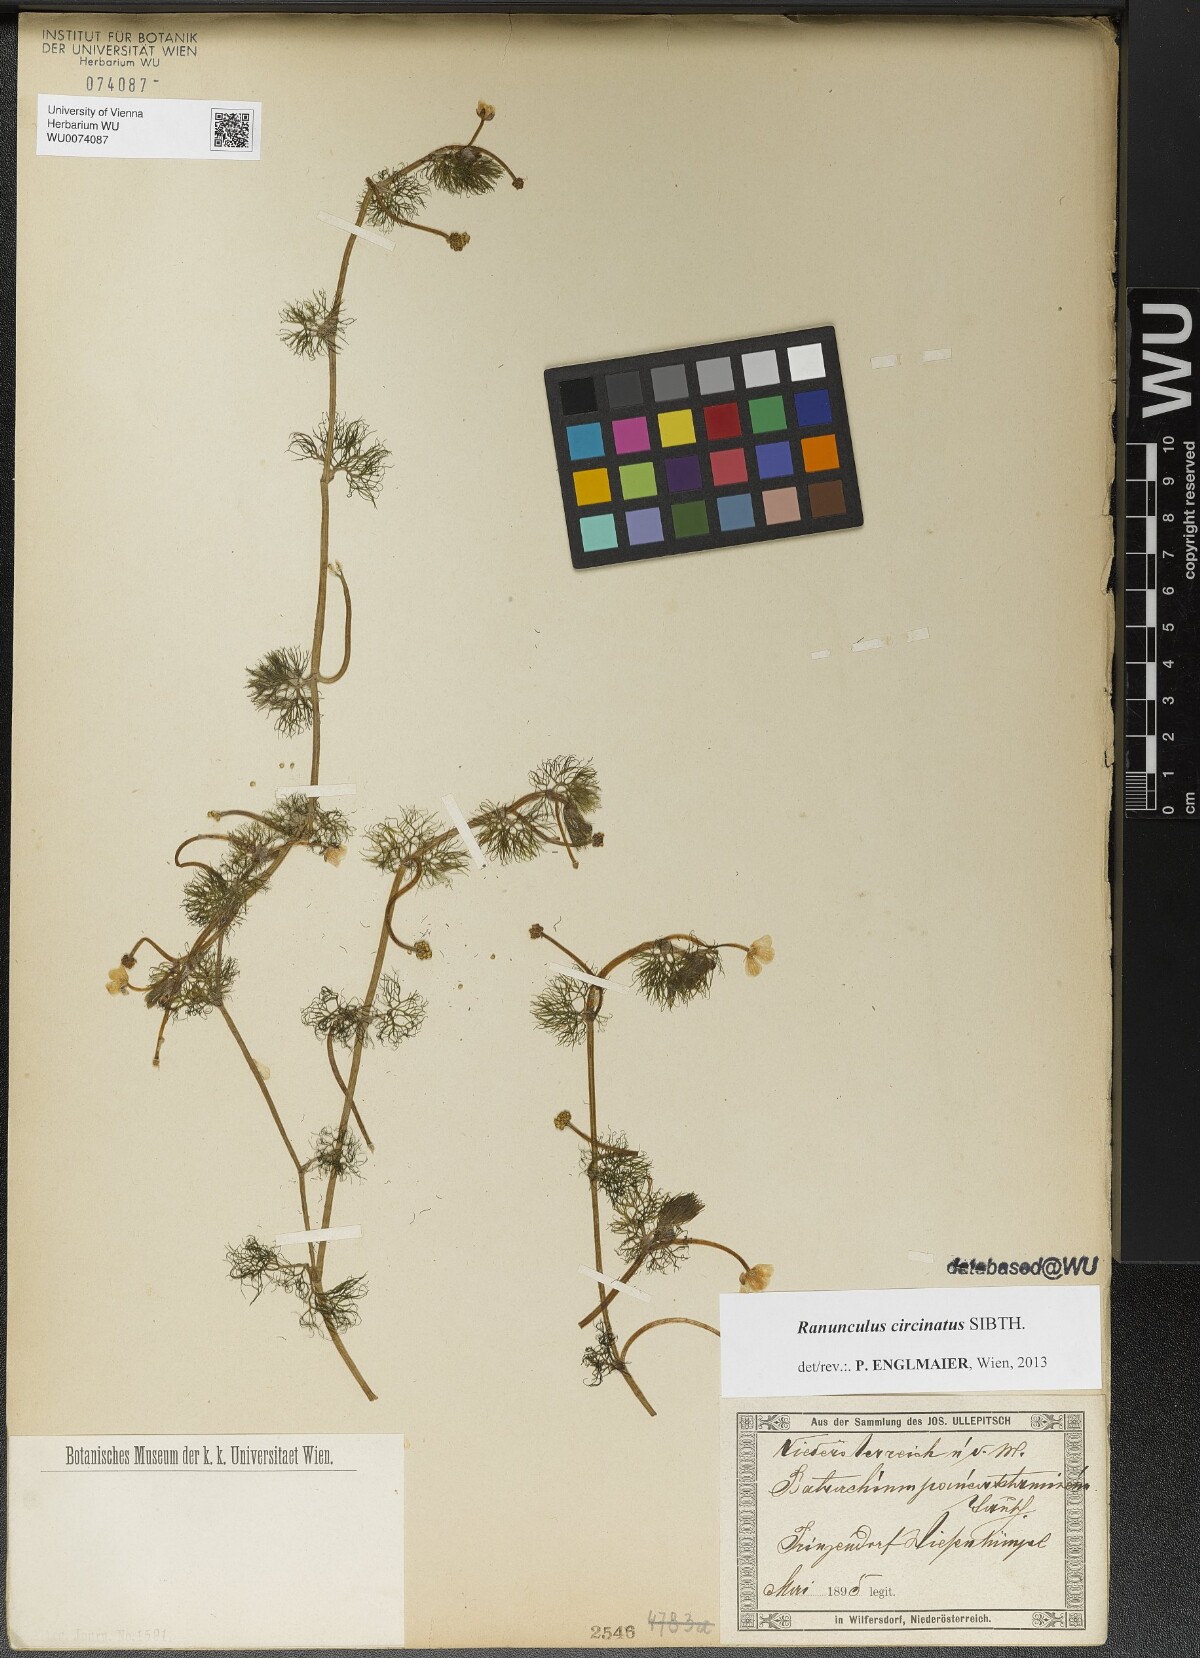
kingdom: Plantae
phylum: Tracheophyta
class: Magnoliopsida
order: Ranunculales
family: Ranunculaceae
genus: Ranunculus
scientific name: Ranunculus circinatus
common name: Fan-leaved water-crowfoot
